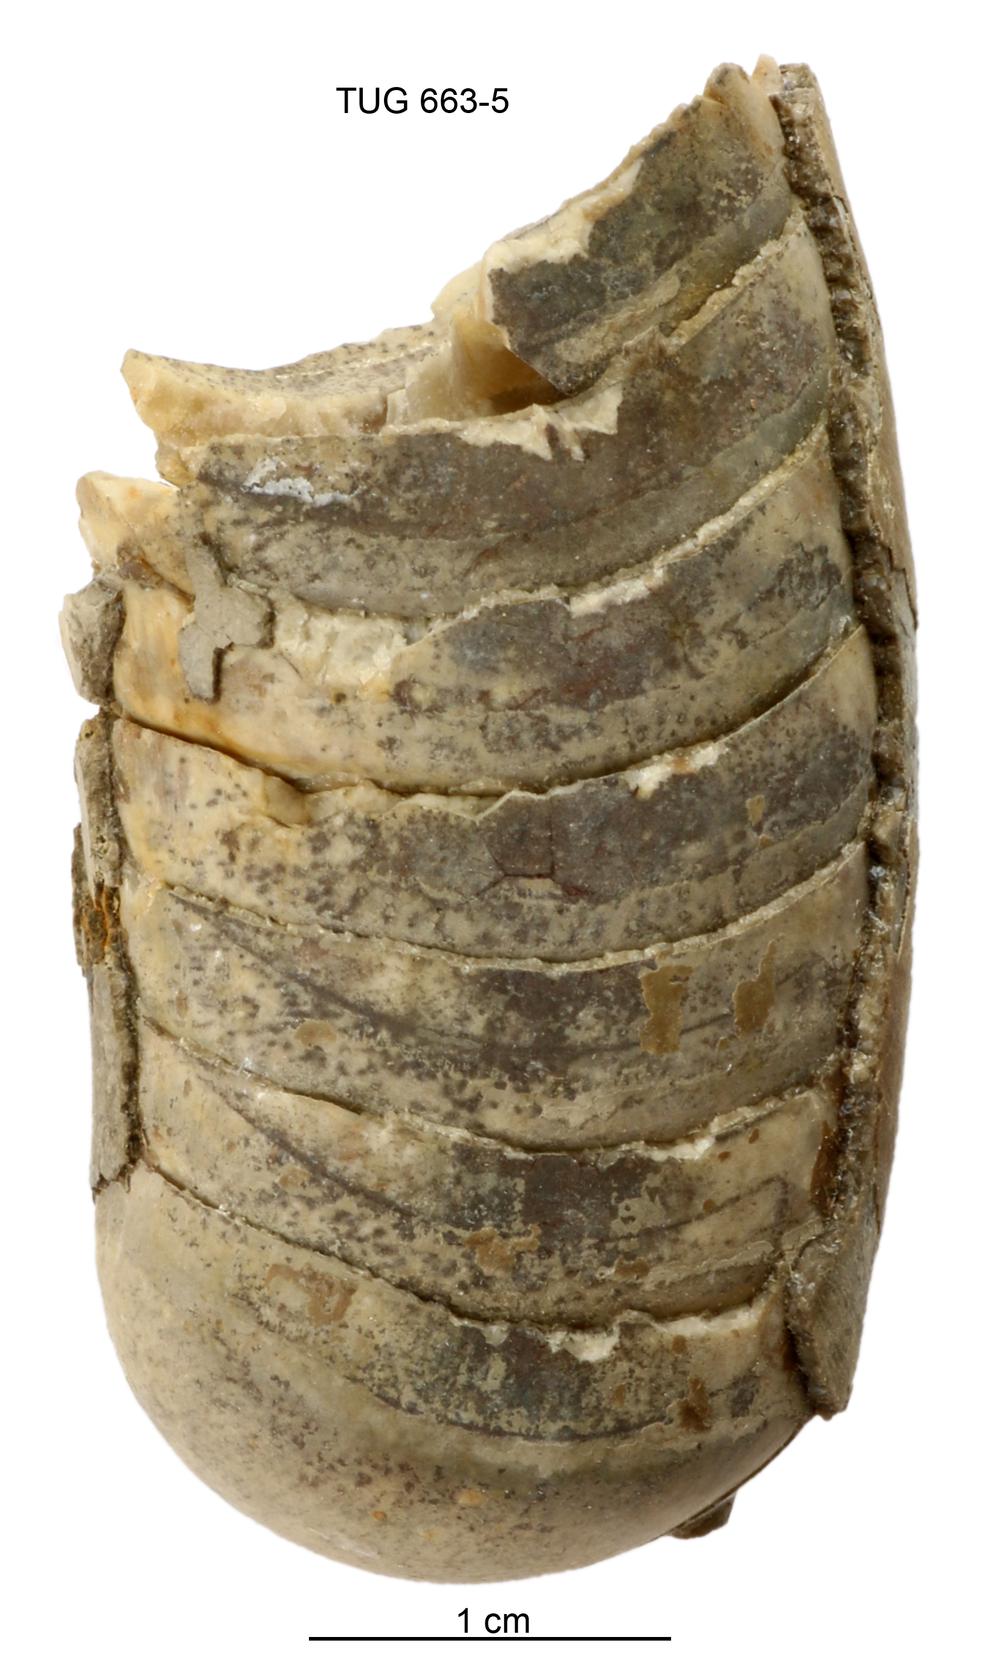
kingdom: Animalia
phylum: Mollusca
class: Cephalopoda
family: Tarphyceratidae
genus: Planctoceras
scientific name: Planctoceras
